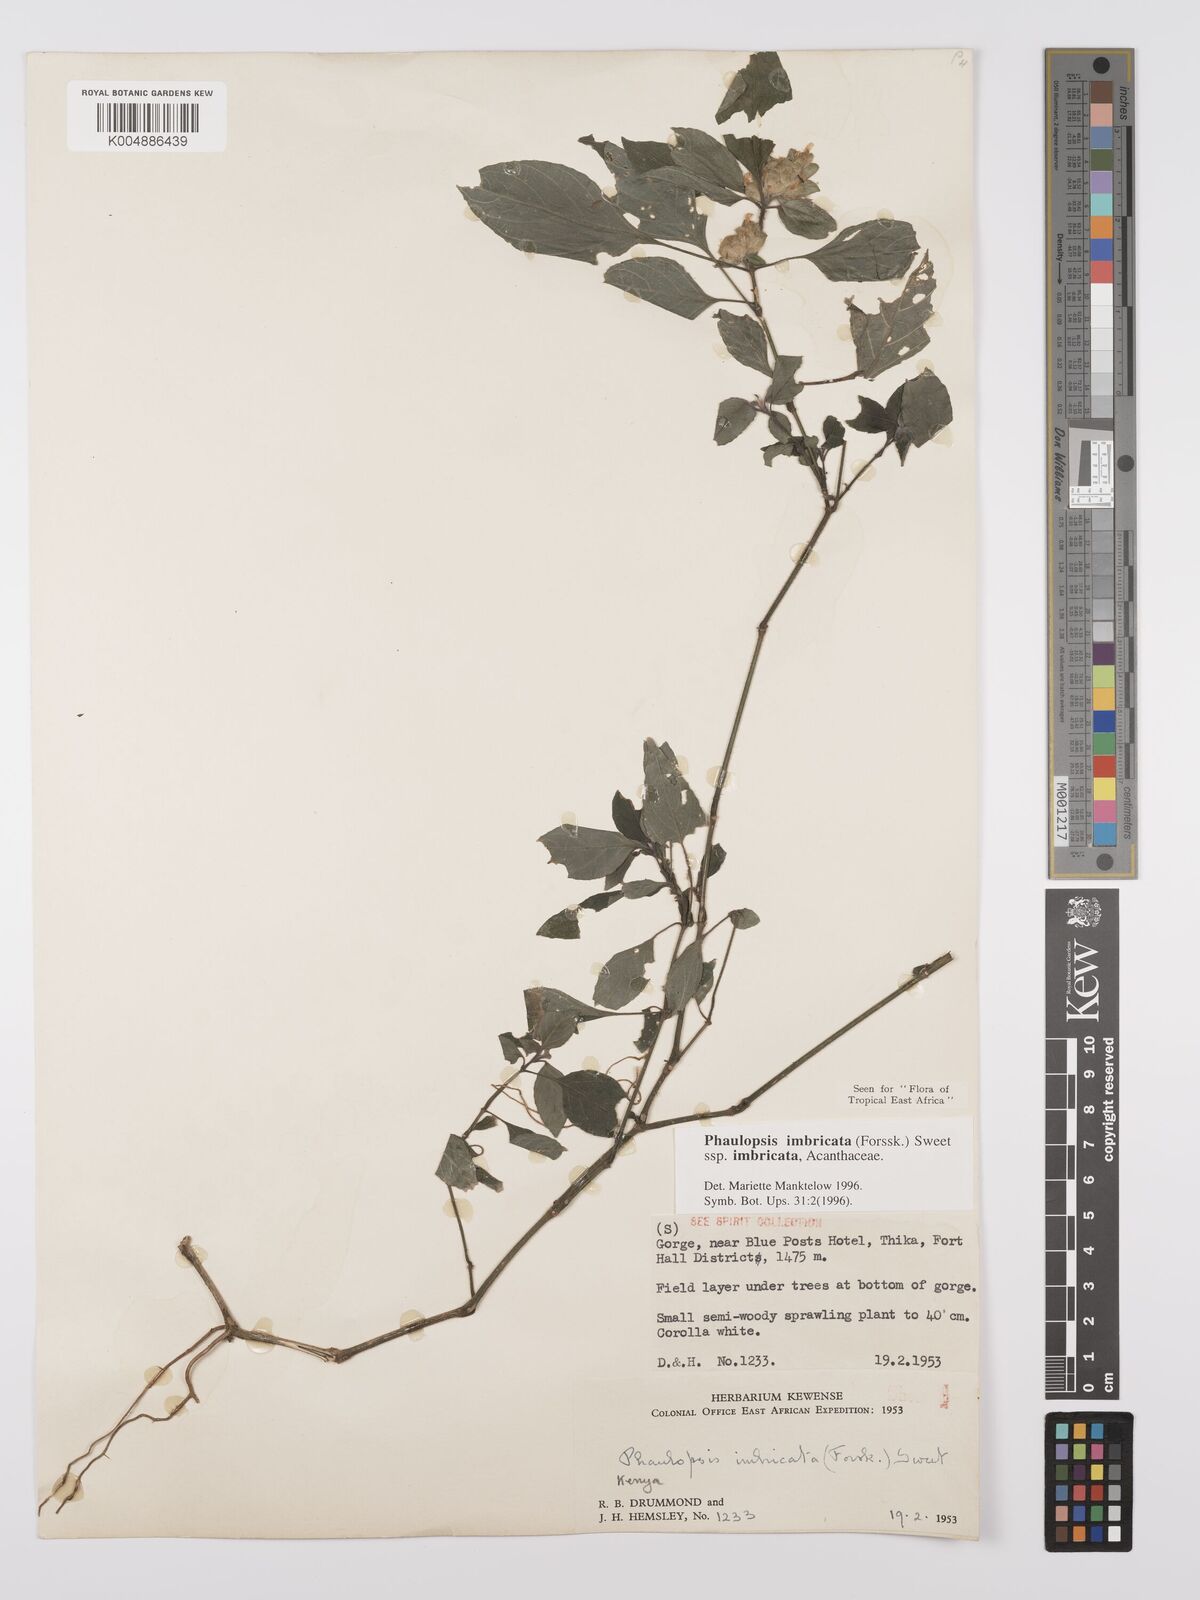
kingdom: Plantae
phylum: Tracheophyta
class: Magnoliopsida
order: Lamiales
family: Acanthaceae
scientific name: Acanthaceae
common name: Acanthaceae
